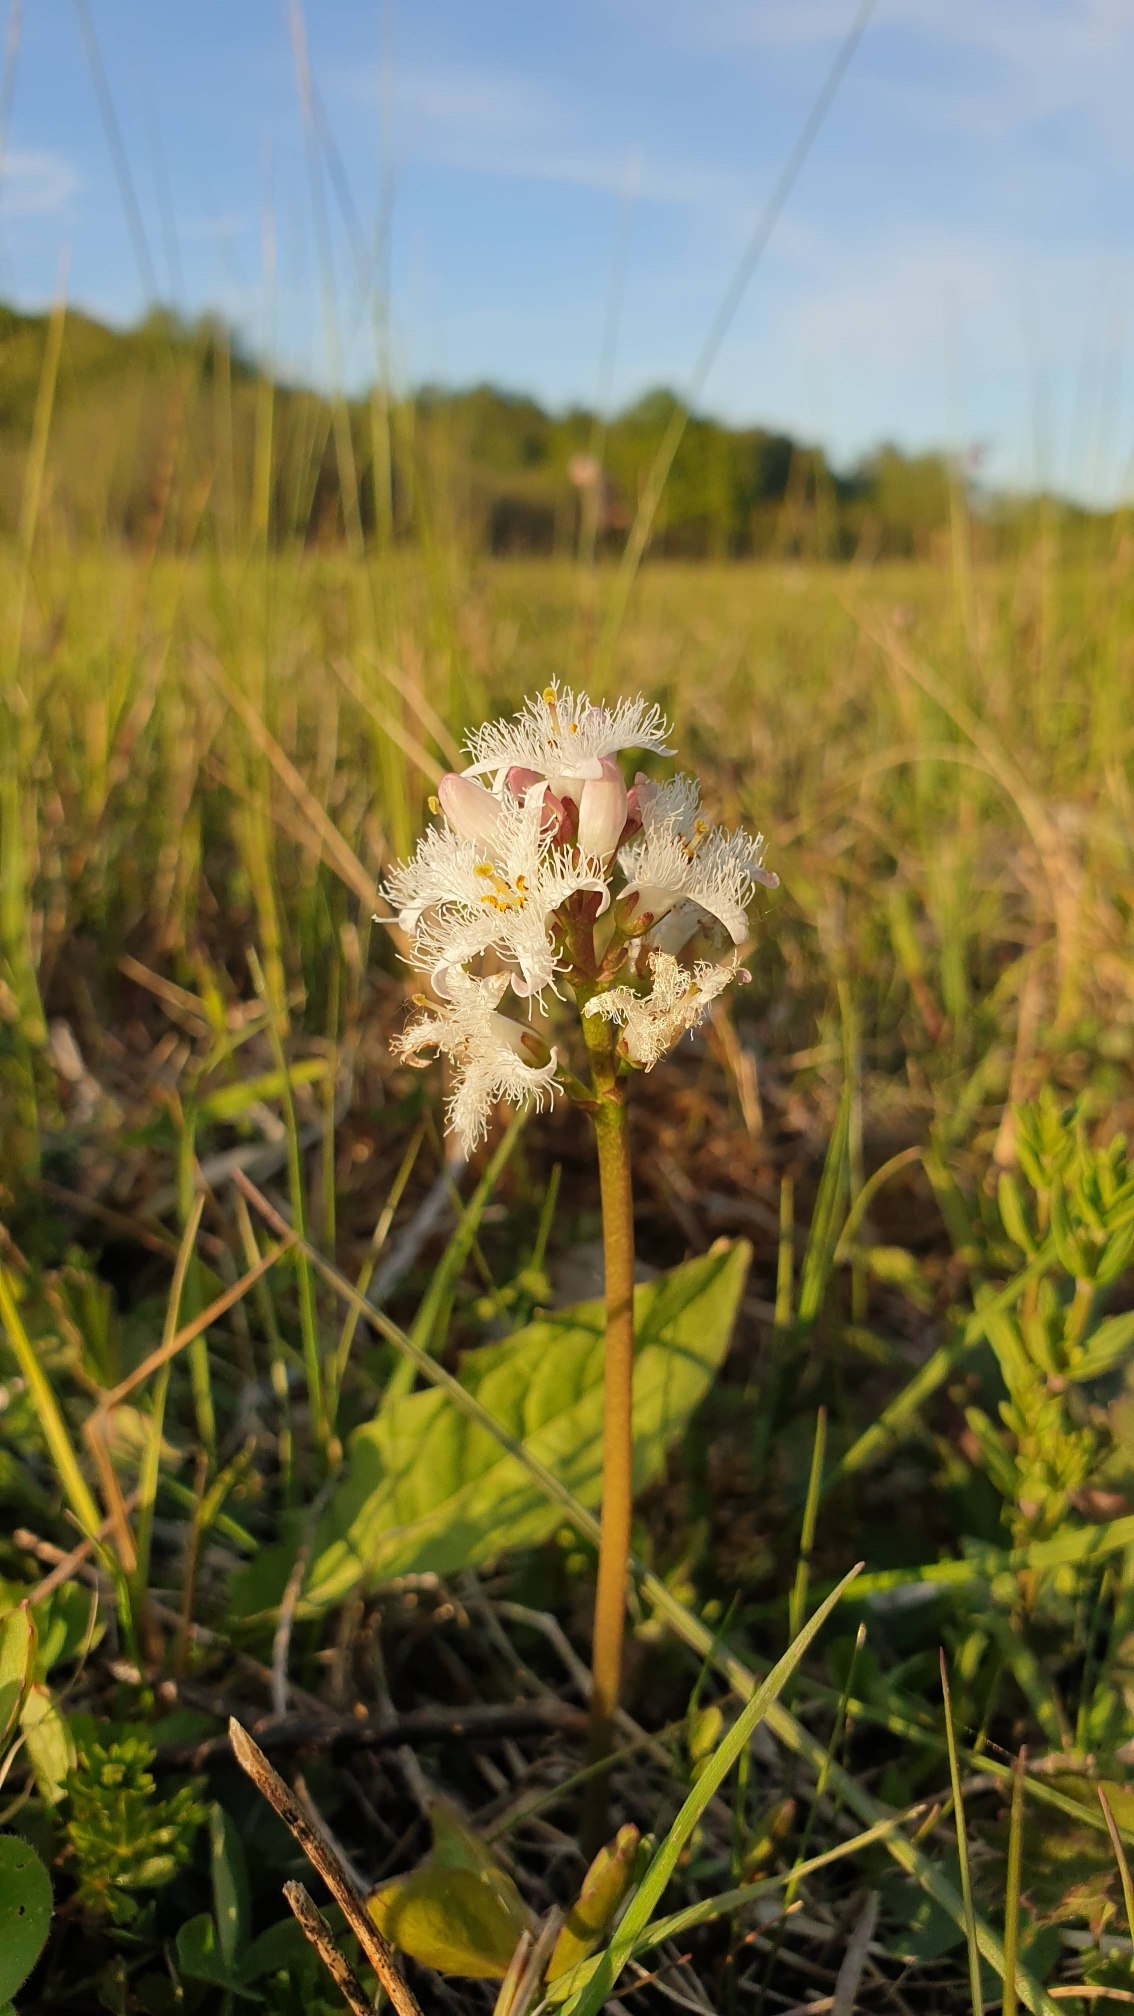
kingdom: Plantae
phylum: Tracheophyta
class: Magnoliopsida
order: Asterales
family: Menyanthaceae
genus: Menyanthes
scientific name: Menyanthes trifoliata
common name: Bukkeblad
